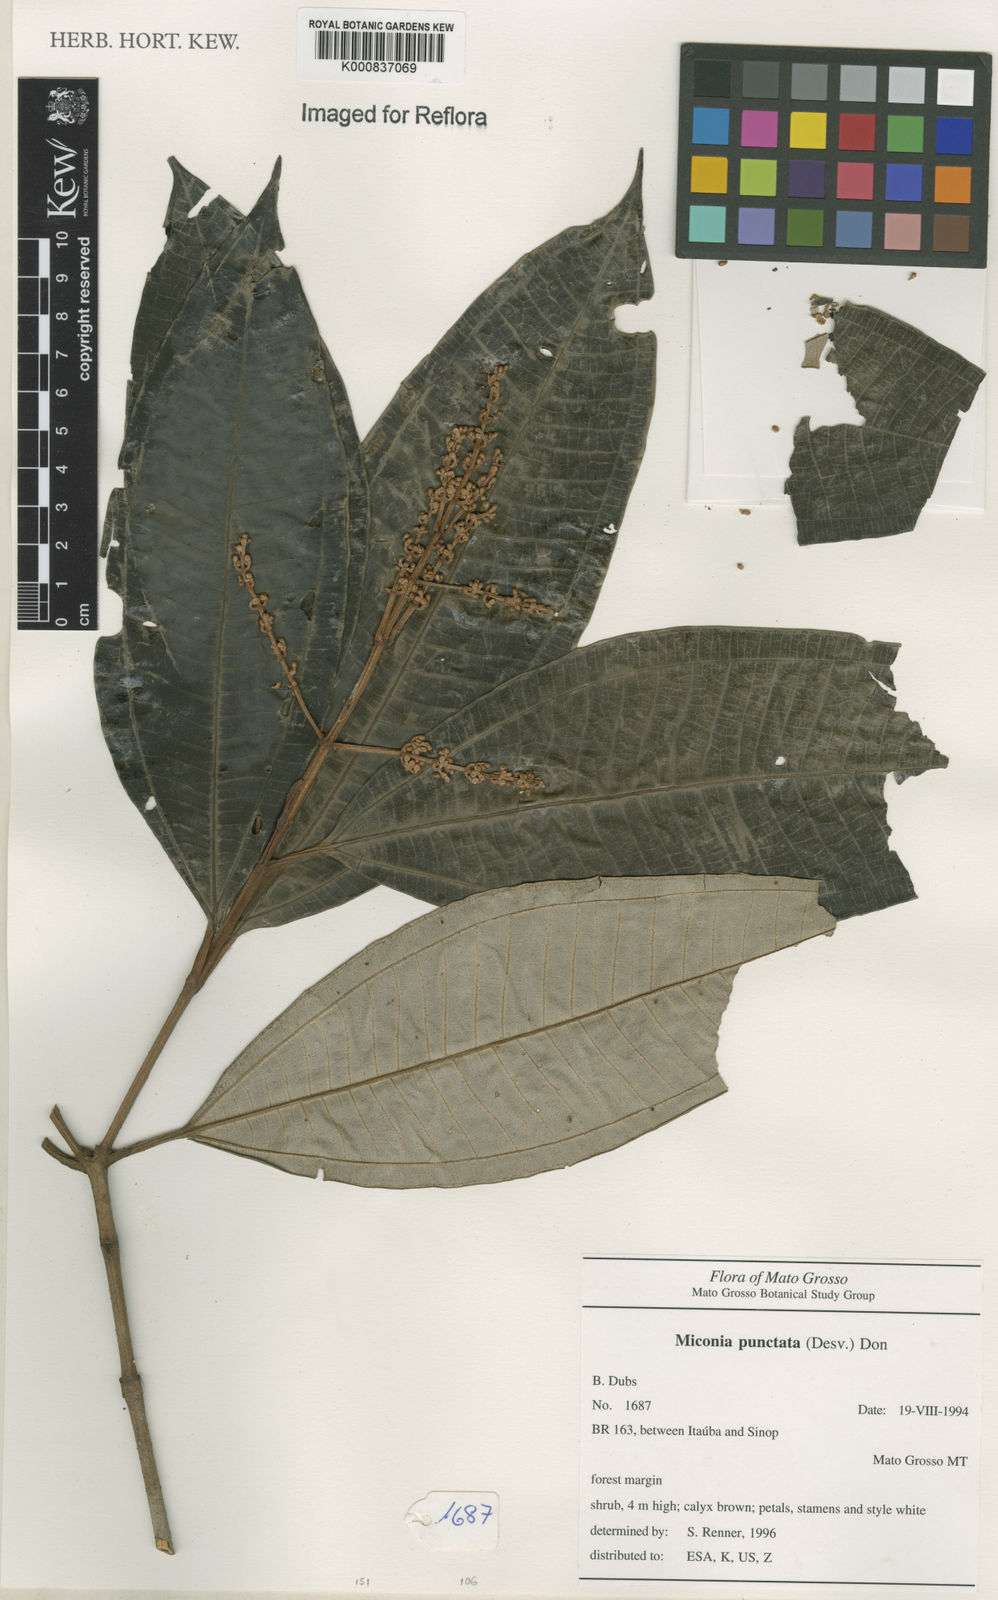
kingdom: Plantae
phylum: Tracheophyta
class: Magnoliopsida
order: Myrtales
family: Melastomataceae
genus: Miconia
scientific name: Miconia punctata
